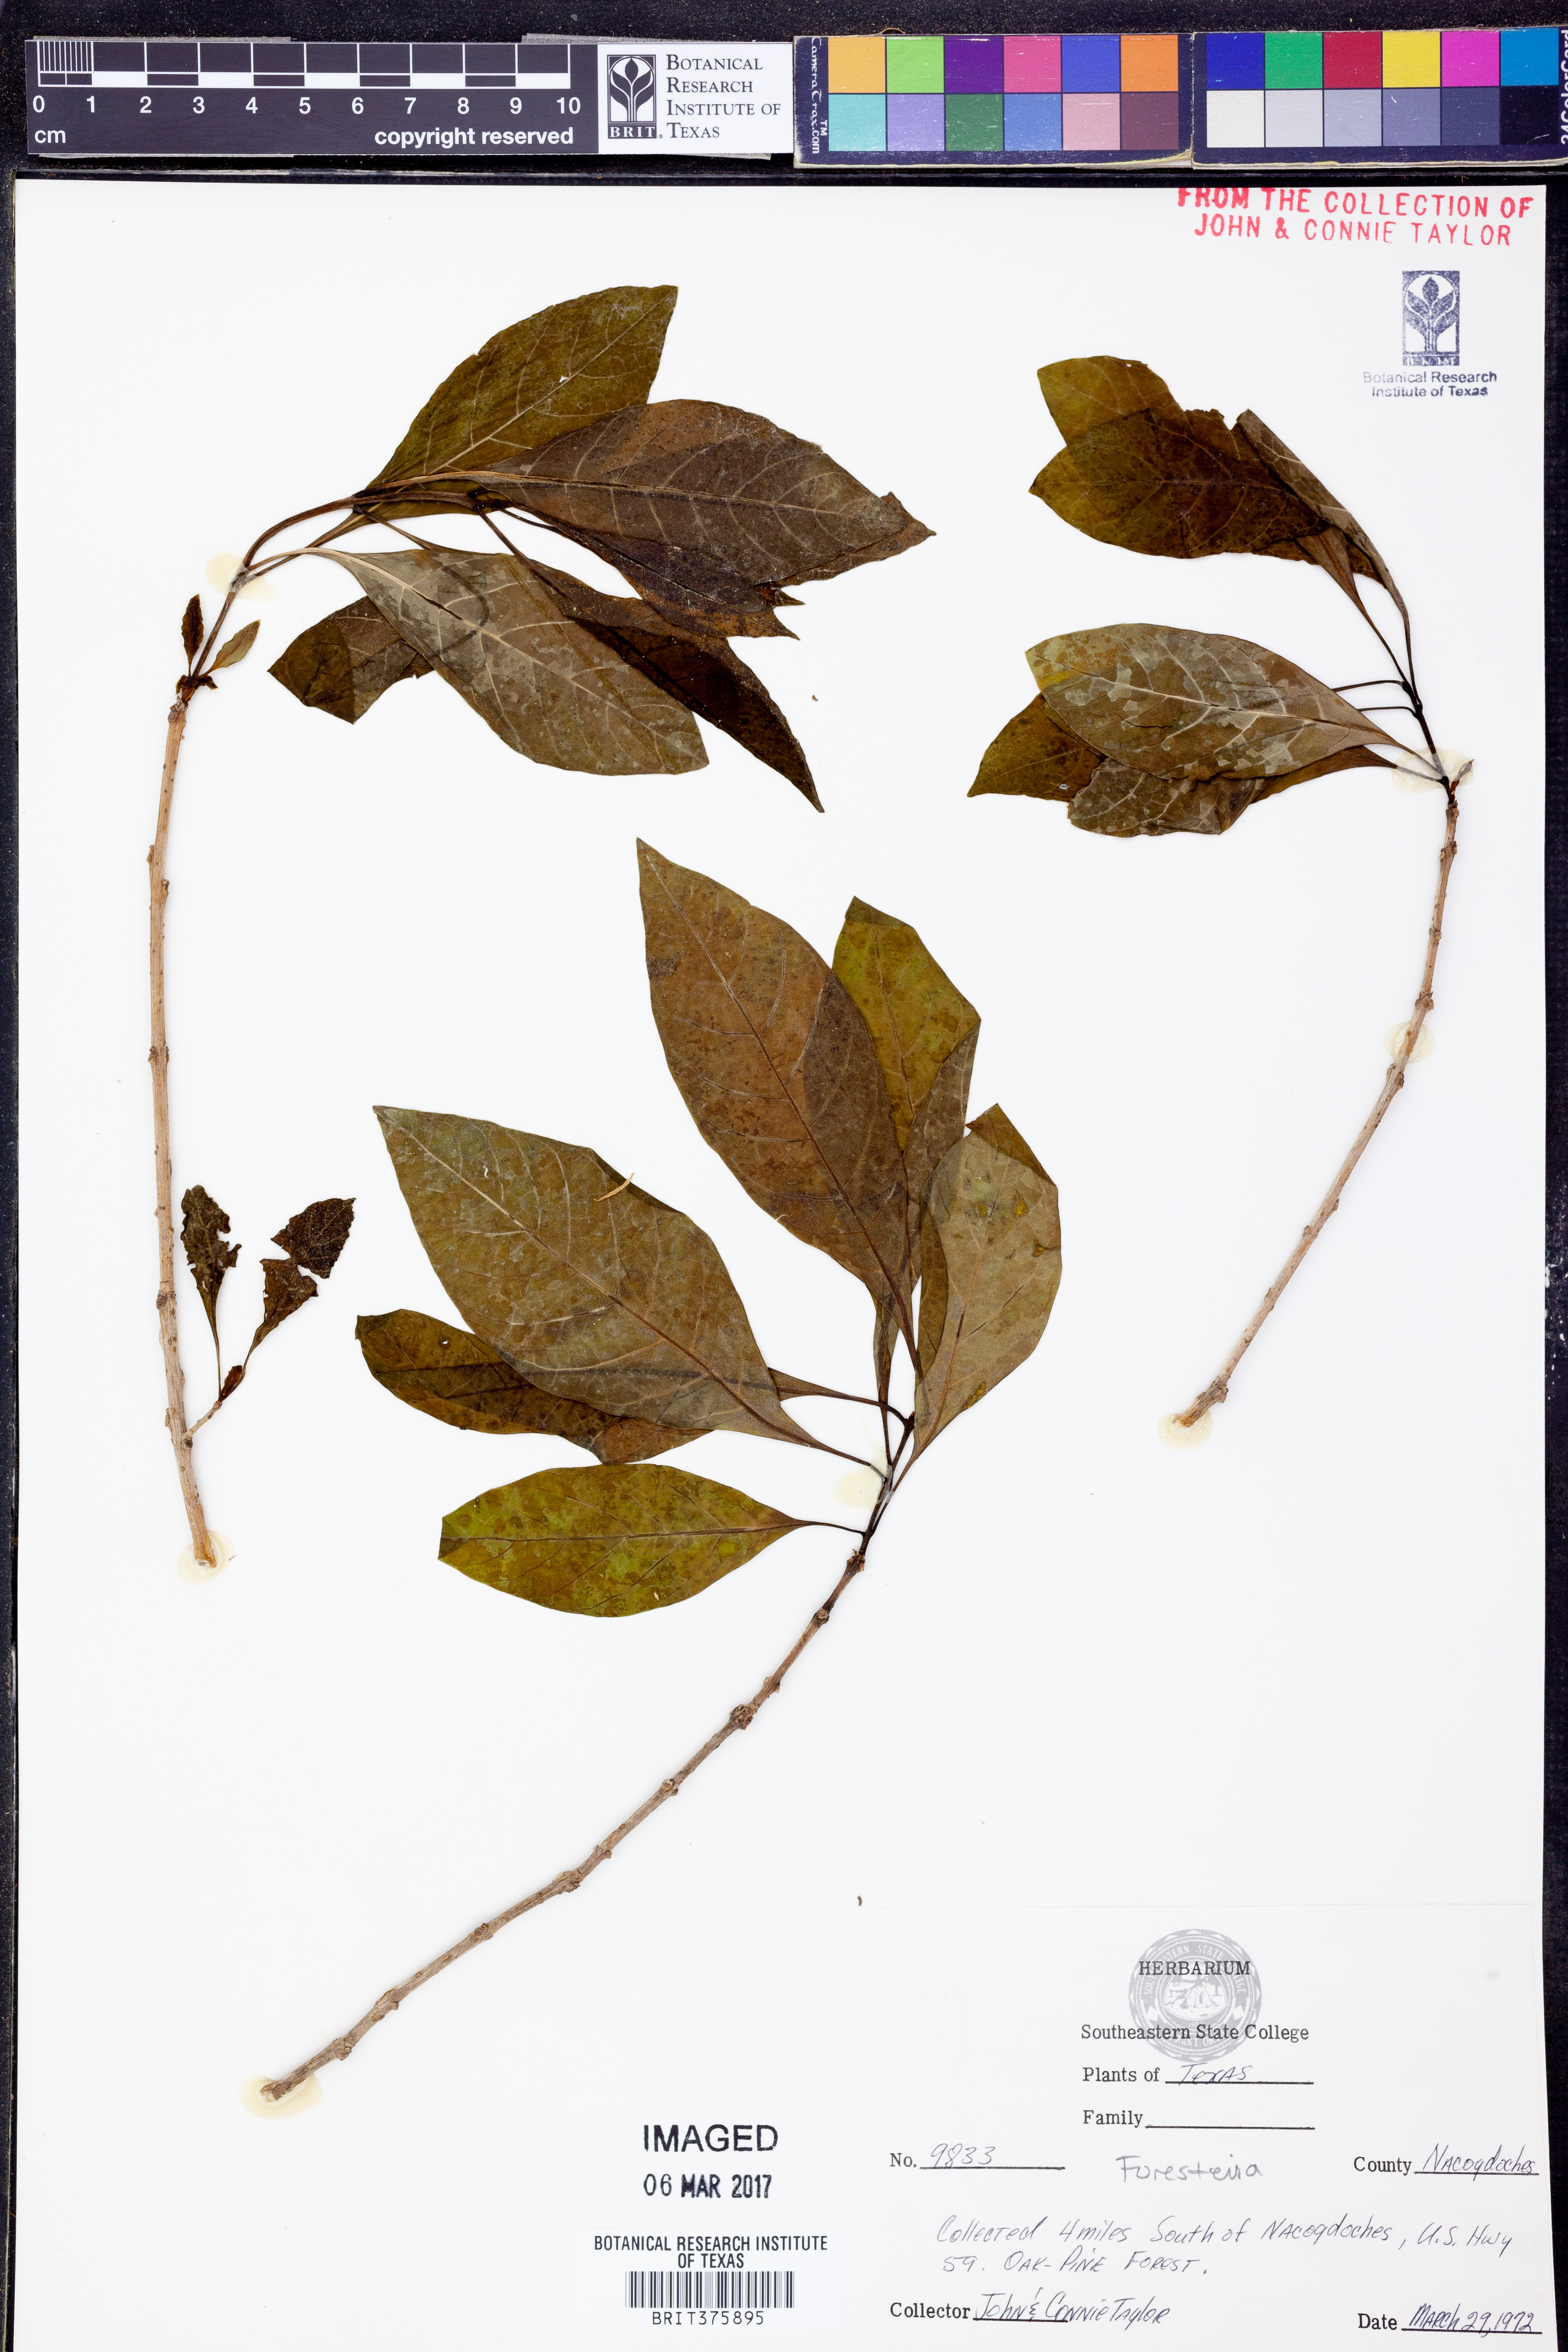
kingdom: Plantae
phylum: Tracheophyta
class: Magnoliopsida
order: Lamiales
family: Oleaceae
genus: Forestiera
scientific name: Forestiera
